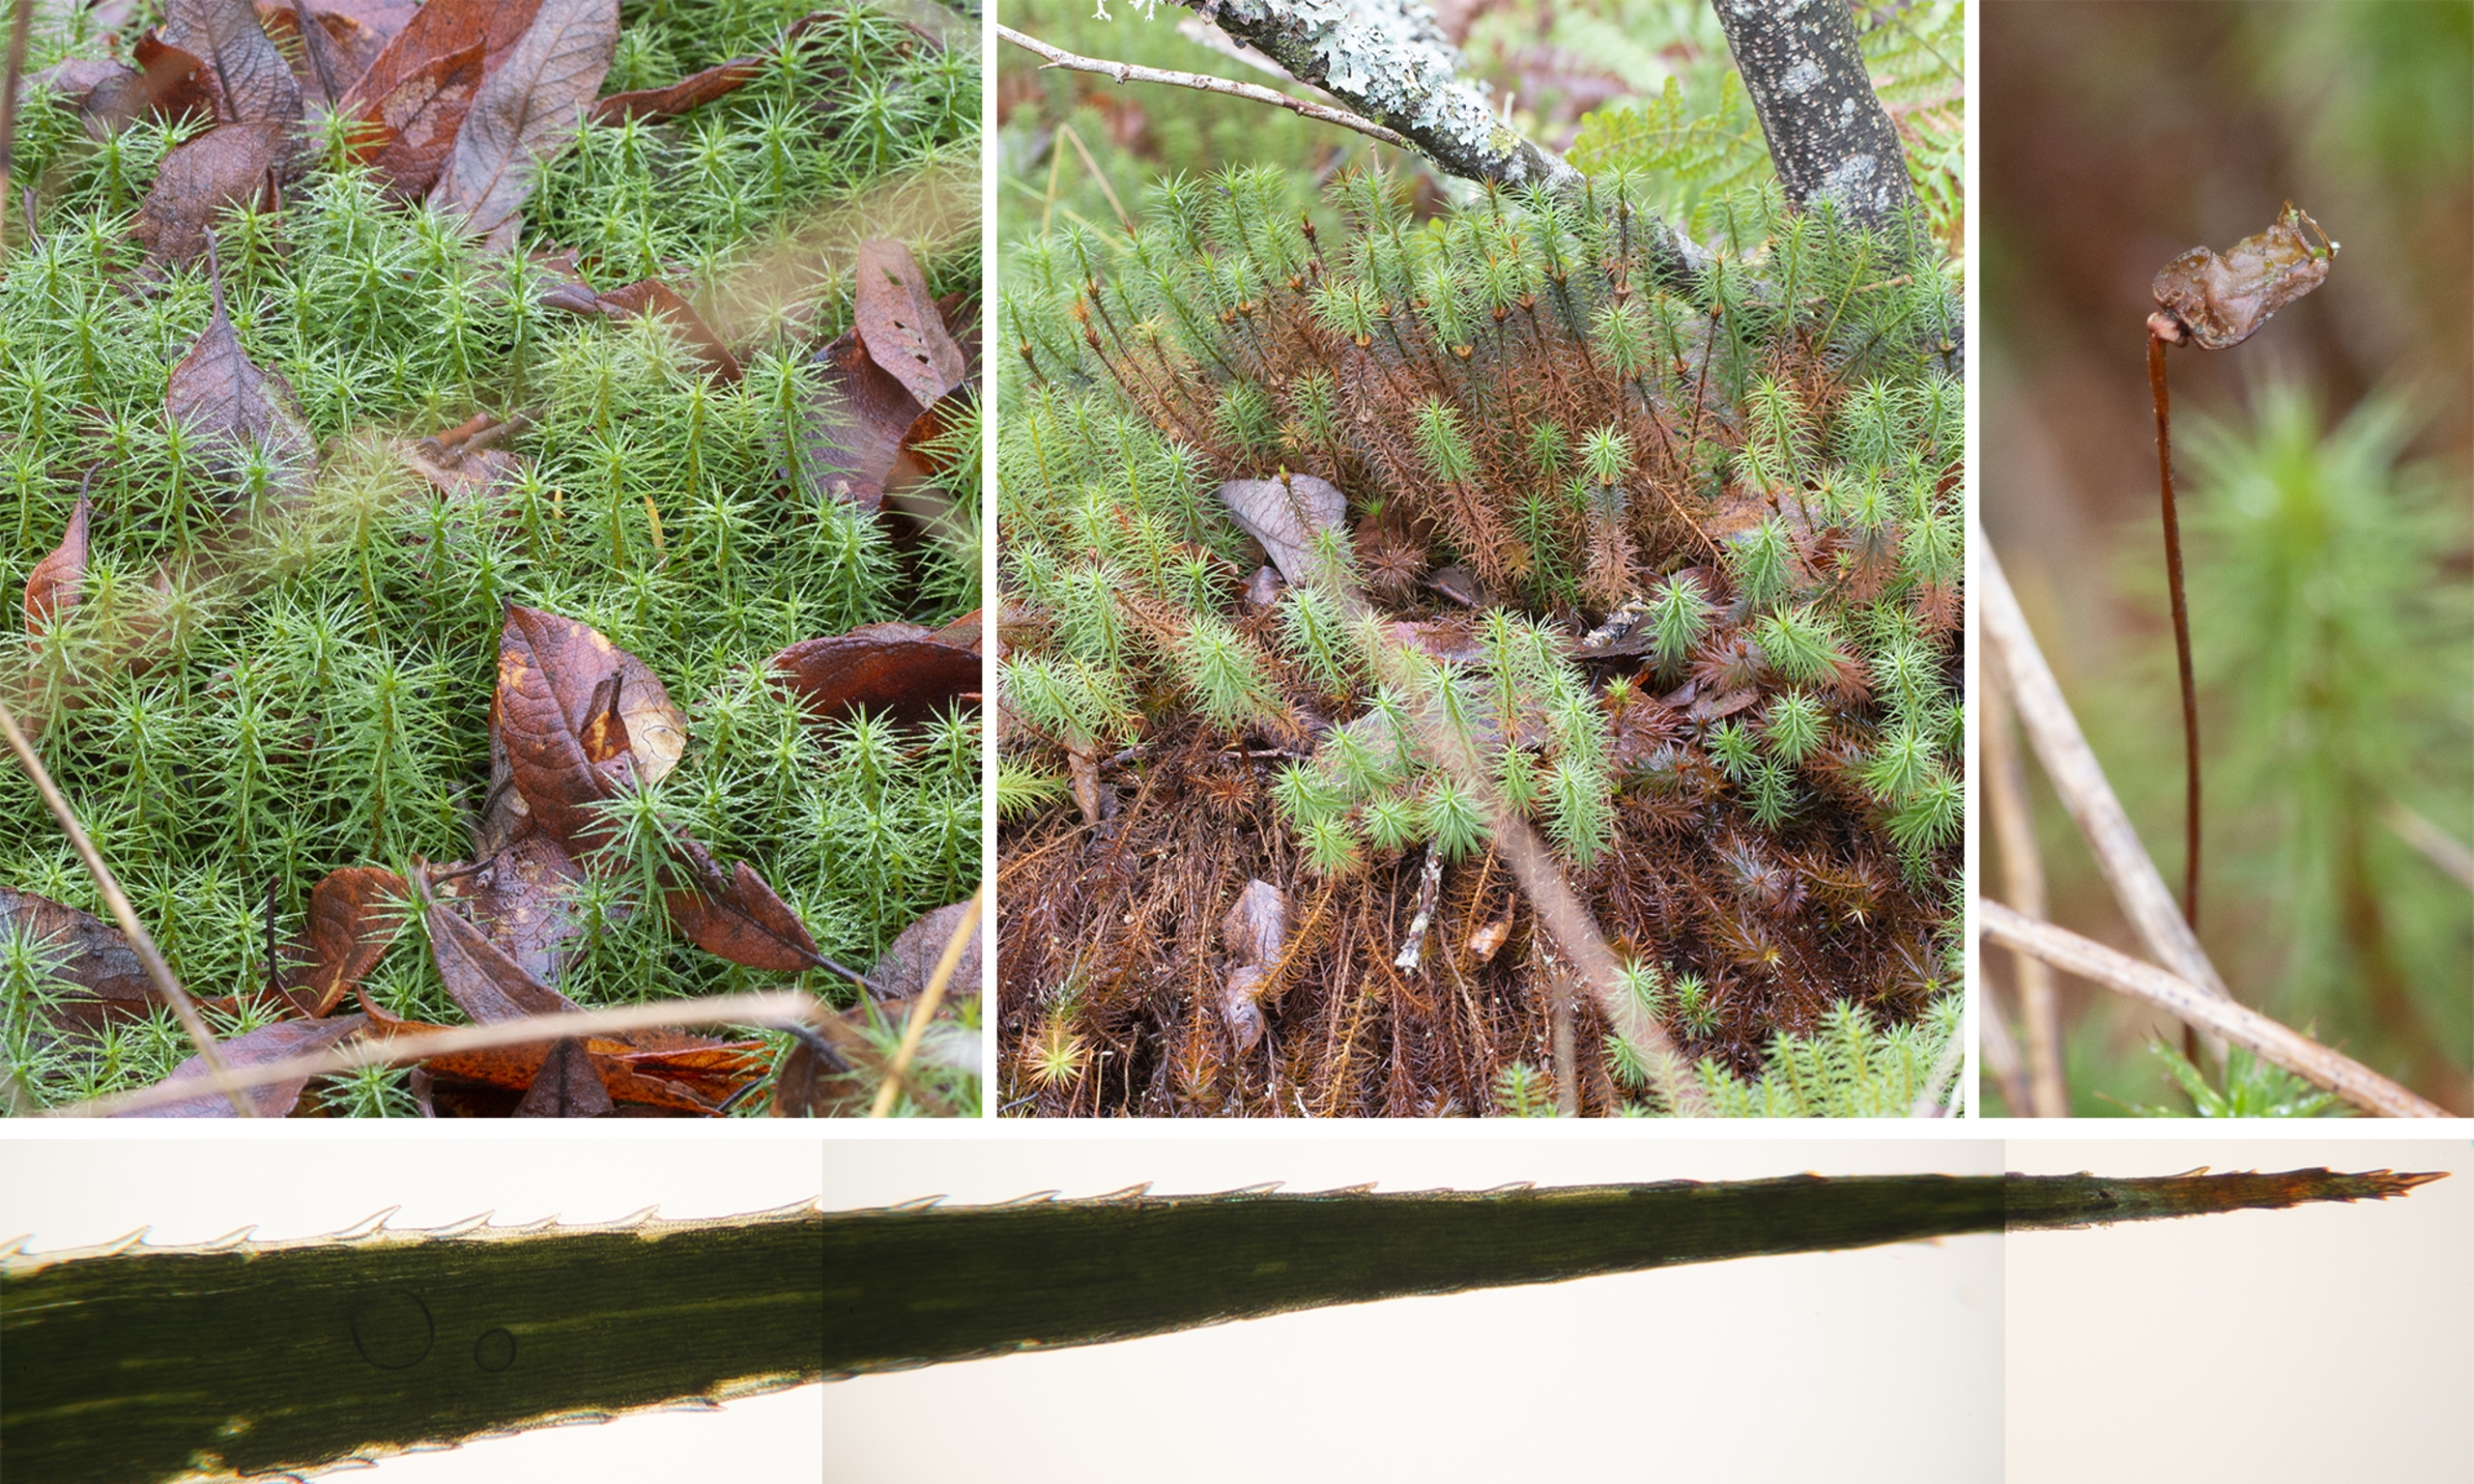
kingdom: Plantae
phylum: Bryophyta
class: Polytrichopsida
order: Polytrichales
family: Polytrichaceae
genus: Polytrichum
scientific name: Polytrichum commune
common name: Almindelig jomfruhår
